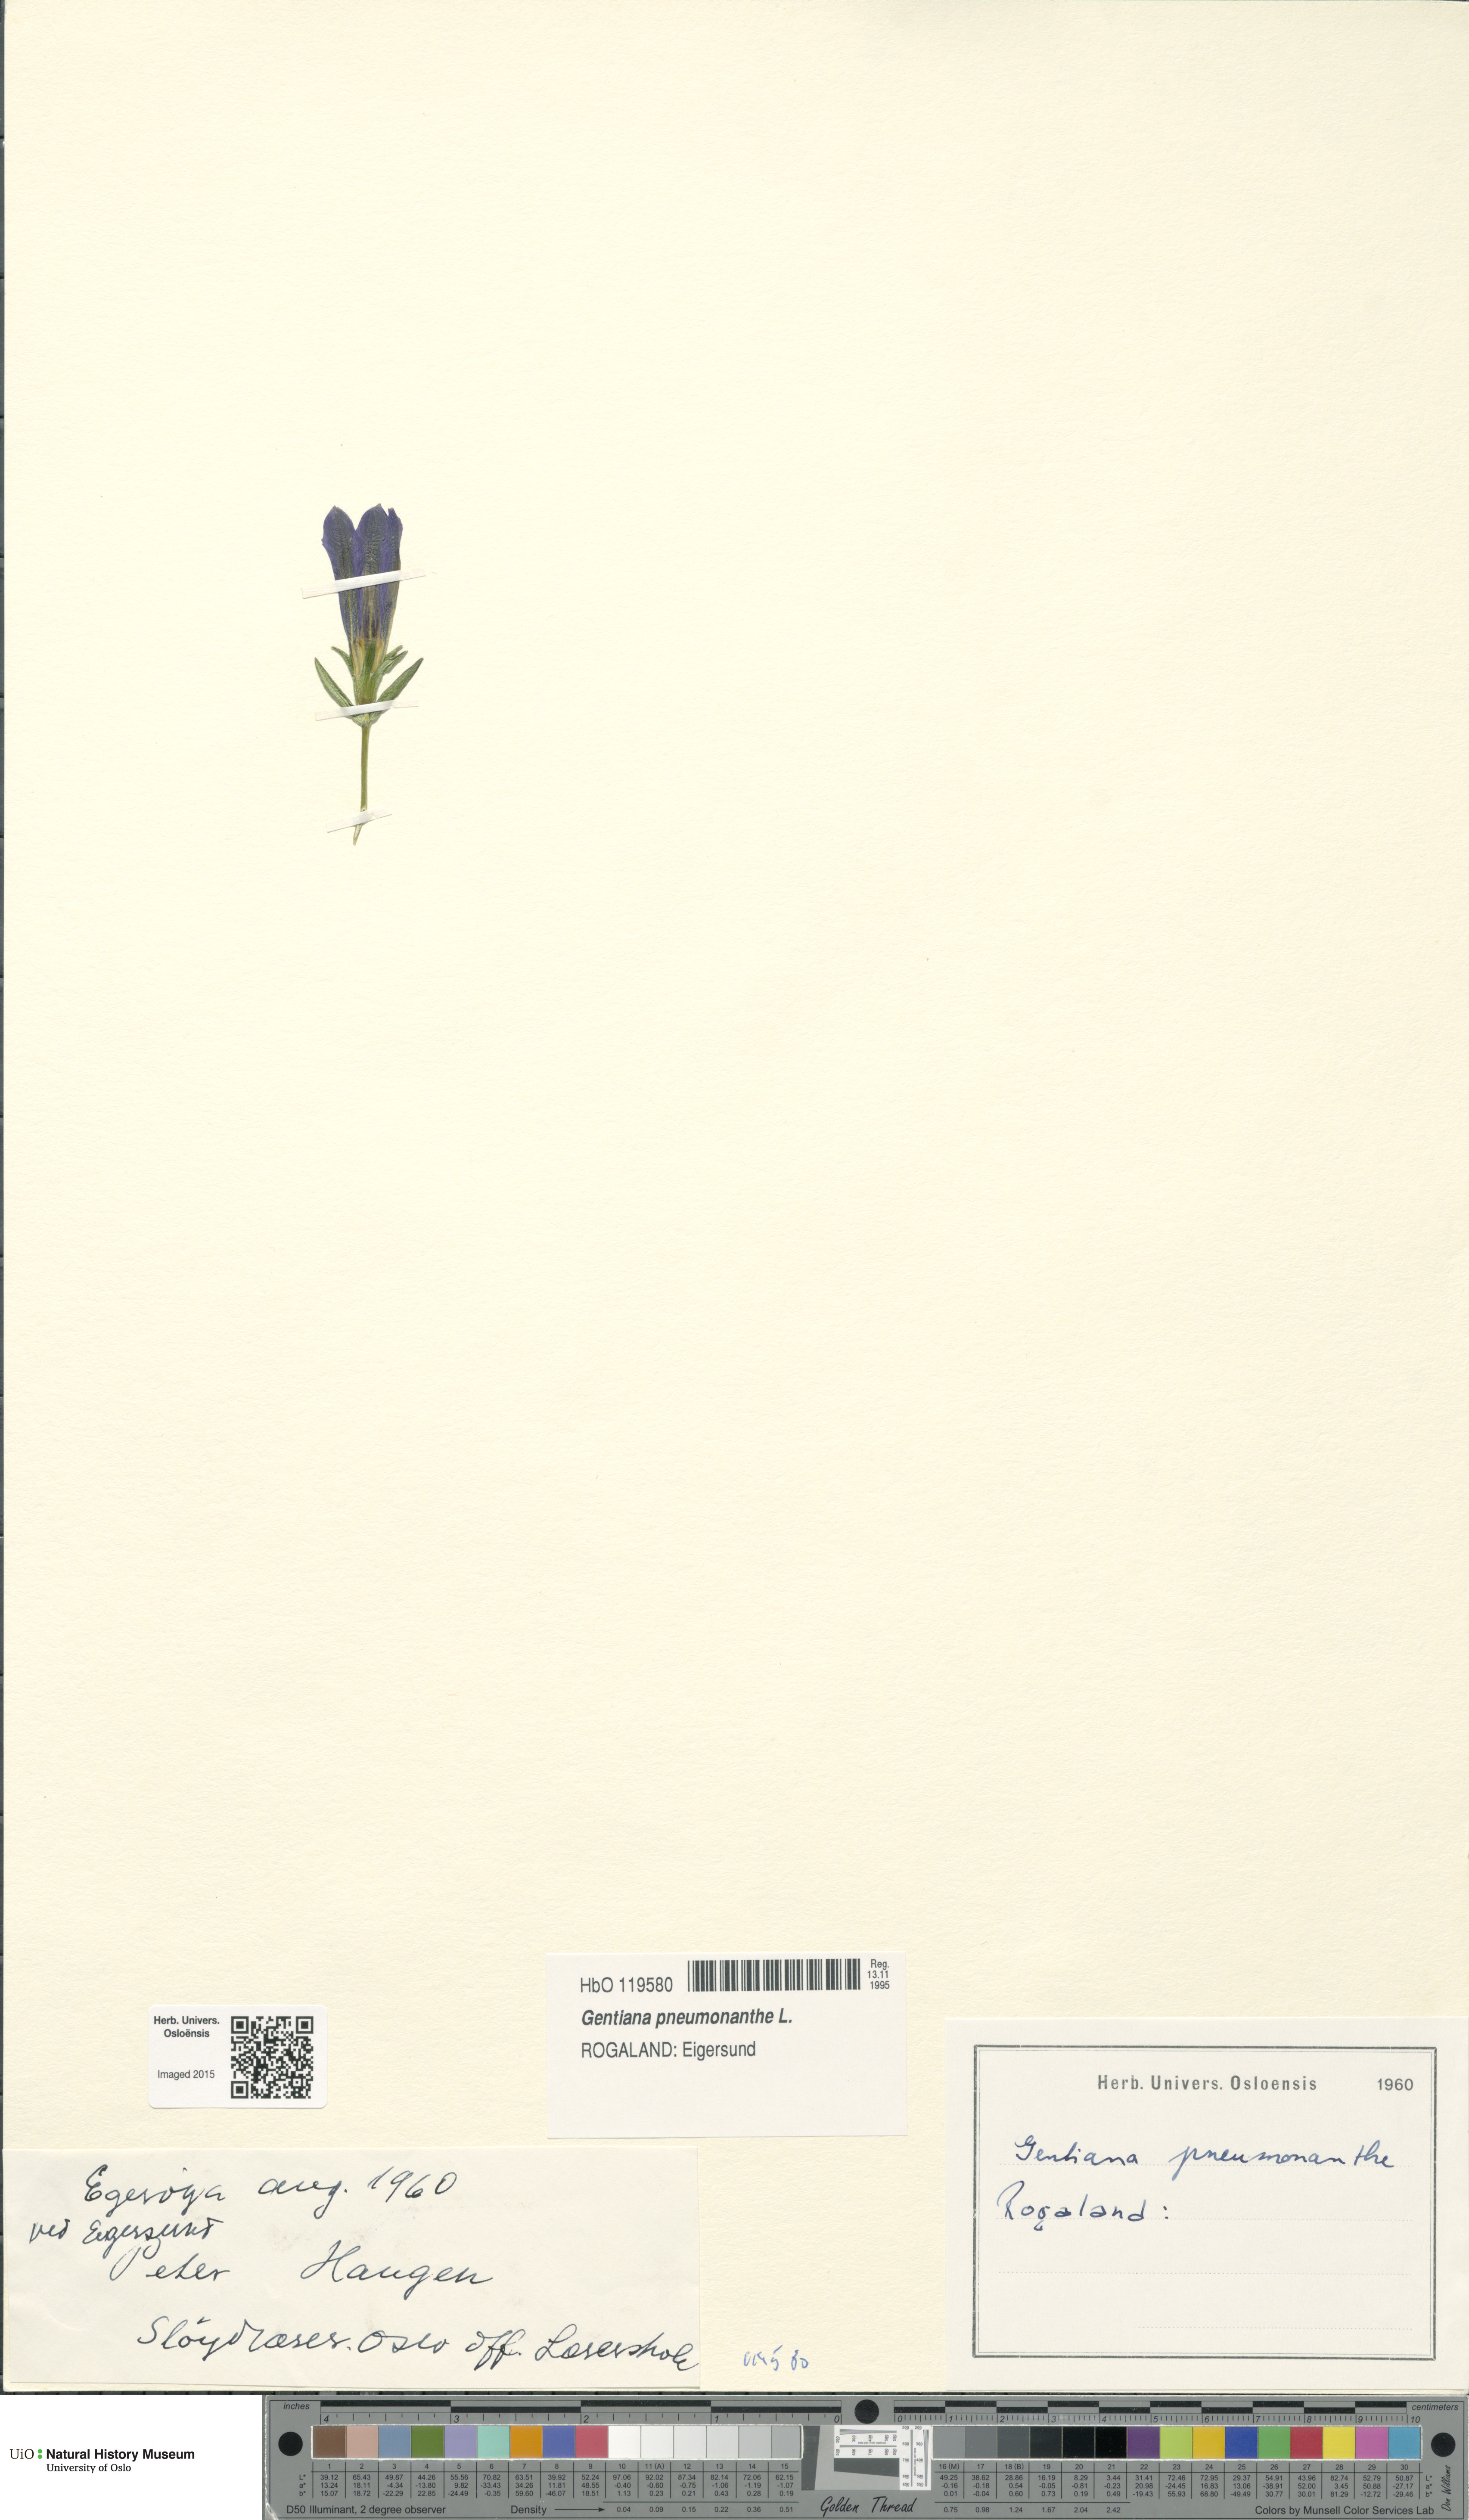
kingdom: Plantae
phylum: Tracheophyta
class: Magnoliopsida
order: Gentianales
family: Gentianaceae
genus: Gentiana
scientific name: Gentiana pneumonanthe
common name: Marsh gentian
